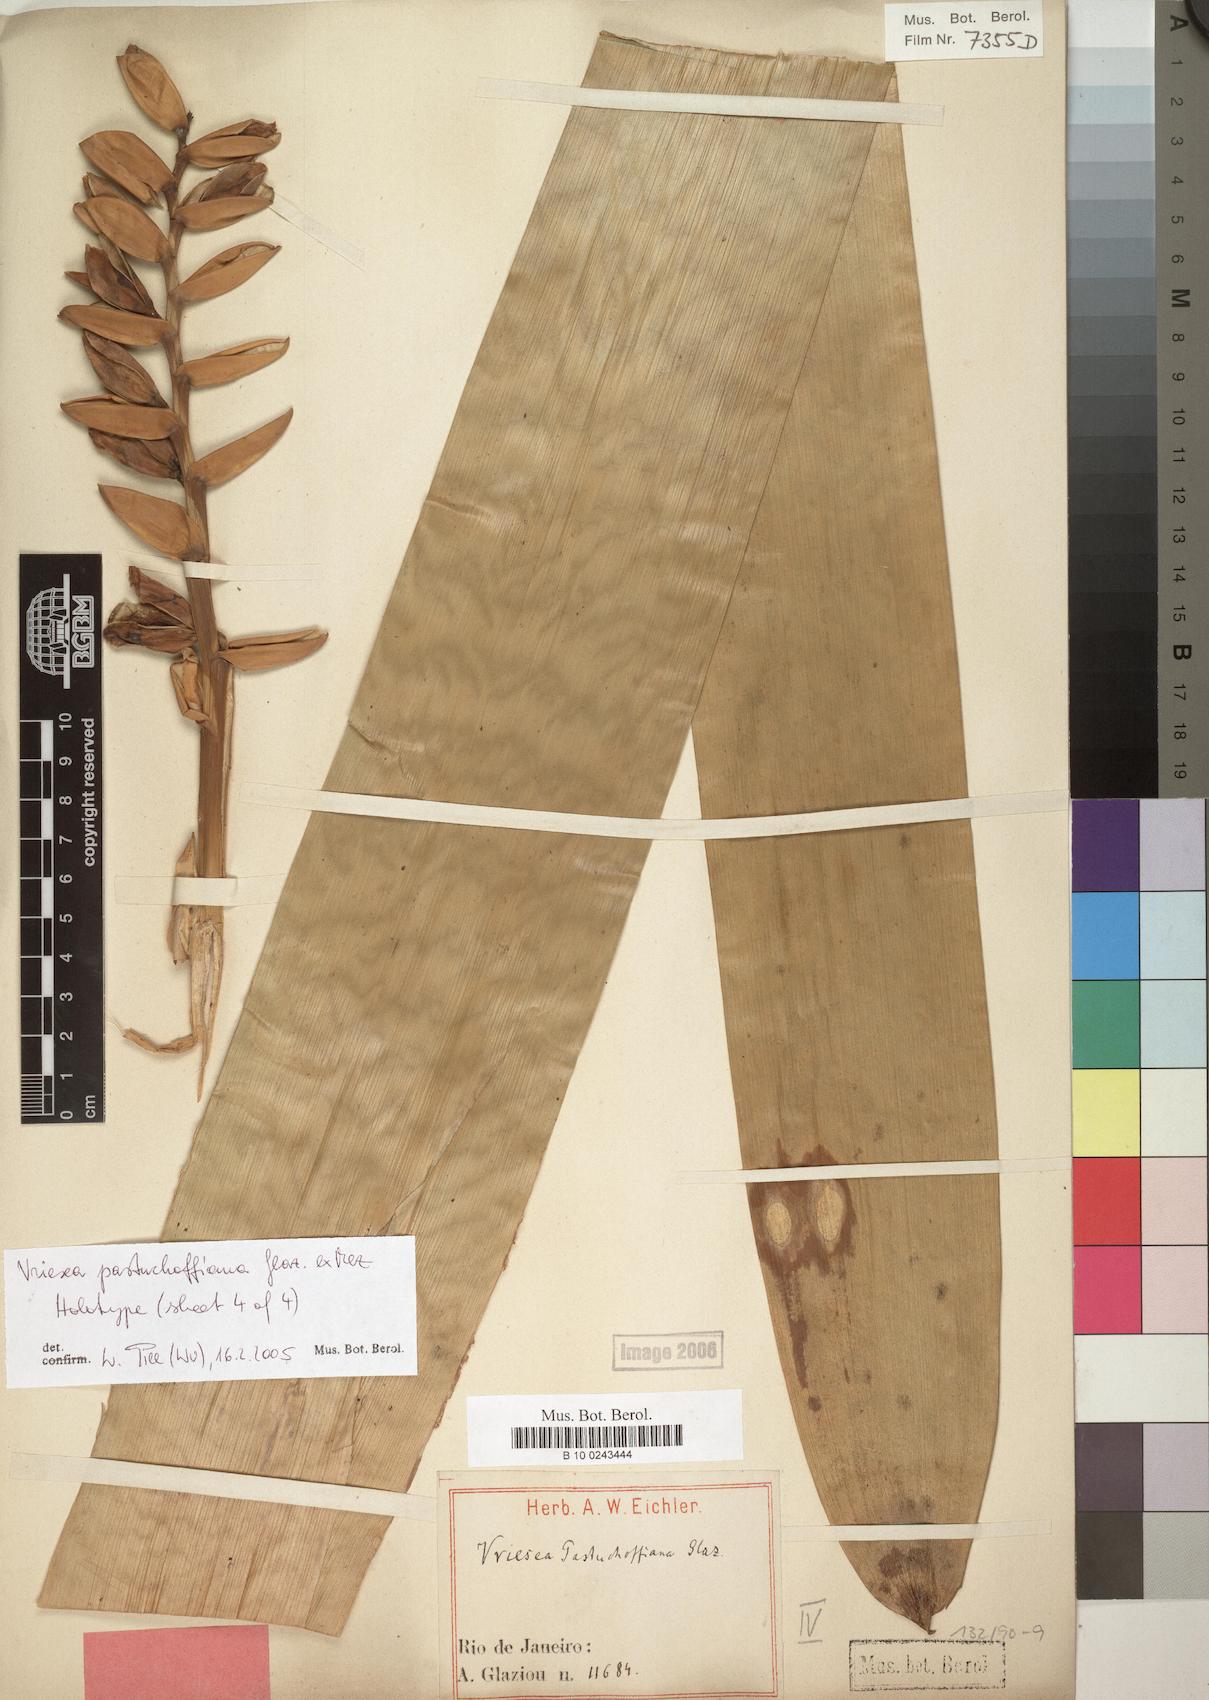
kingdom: Plantae
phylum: Tracheophyta
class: Liliopsida
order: Poales
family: Bromeliaceae
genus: Vriesea
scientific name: Vriesea pastuchoffiana
